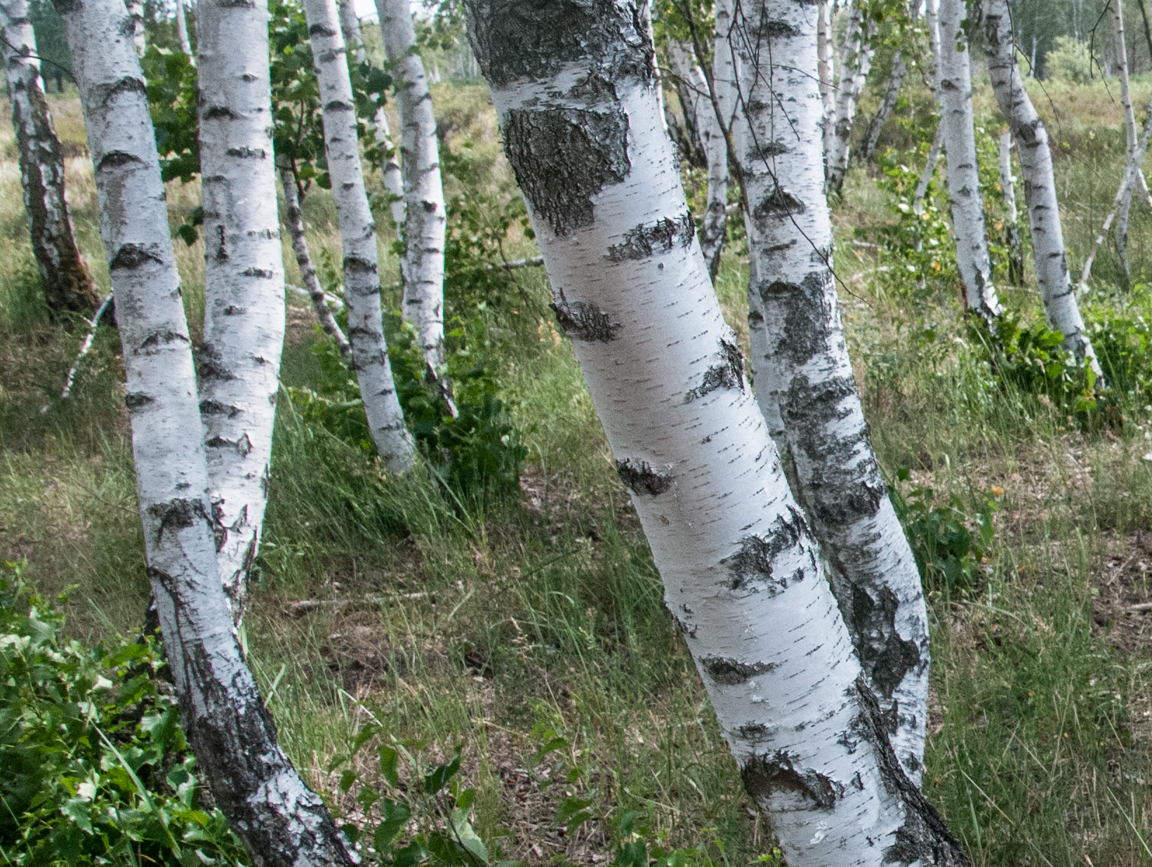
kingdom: Plantae
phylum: Tracheophyta
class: Magnoliopsida
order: Fagales
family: Betulaceae
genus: Betula
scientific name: Betula pendula
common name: Silver birch
